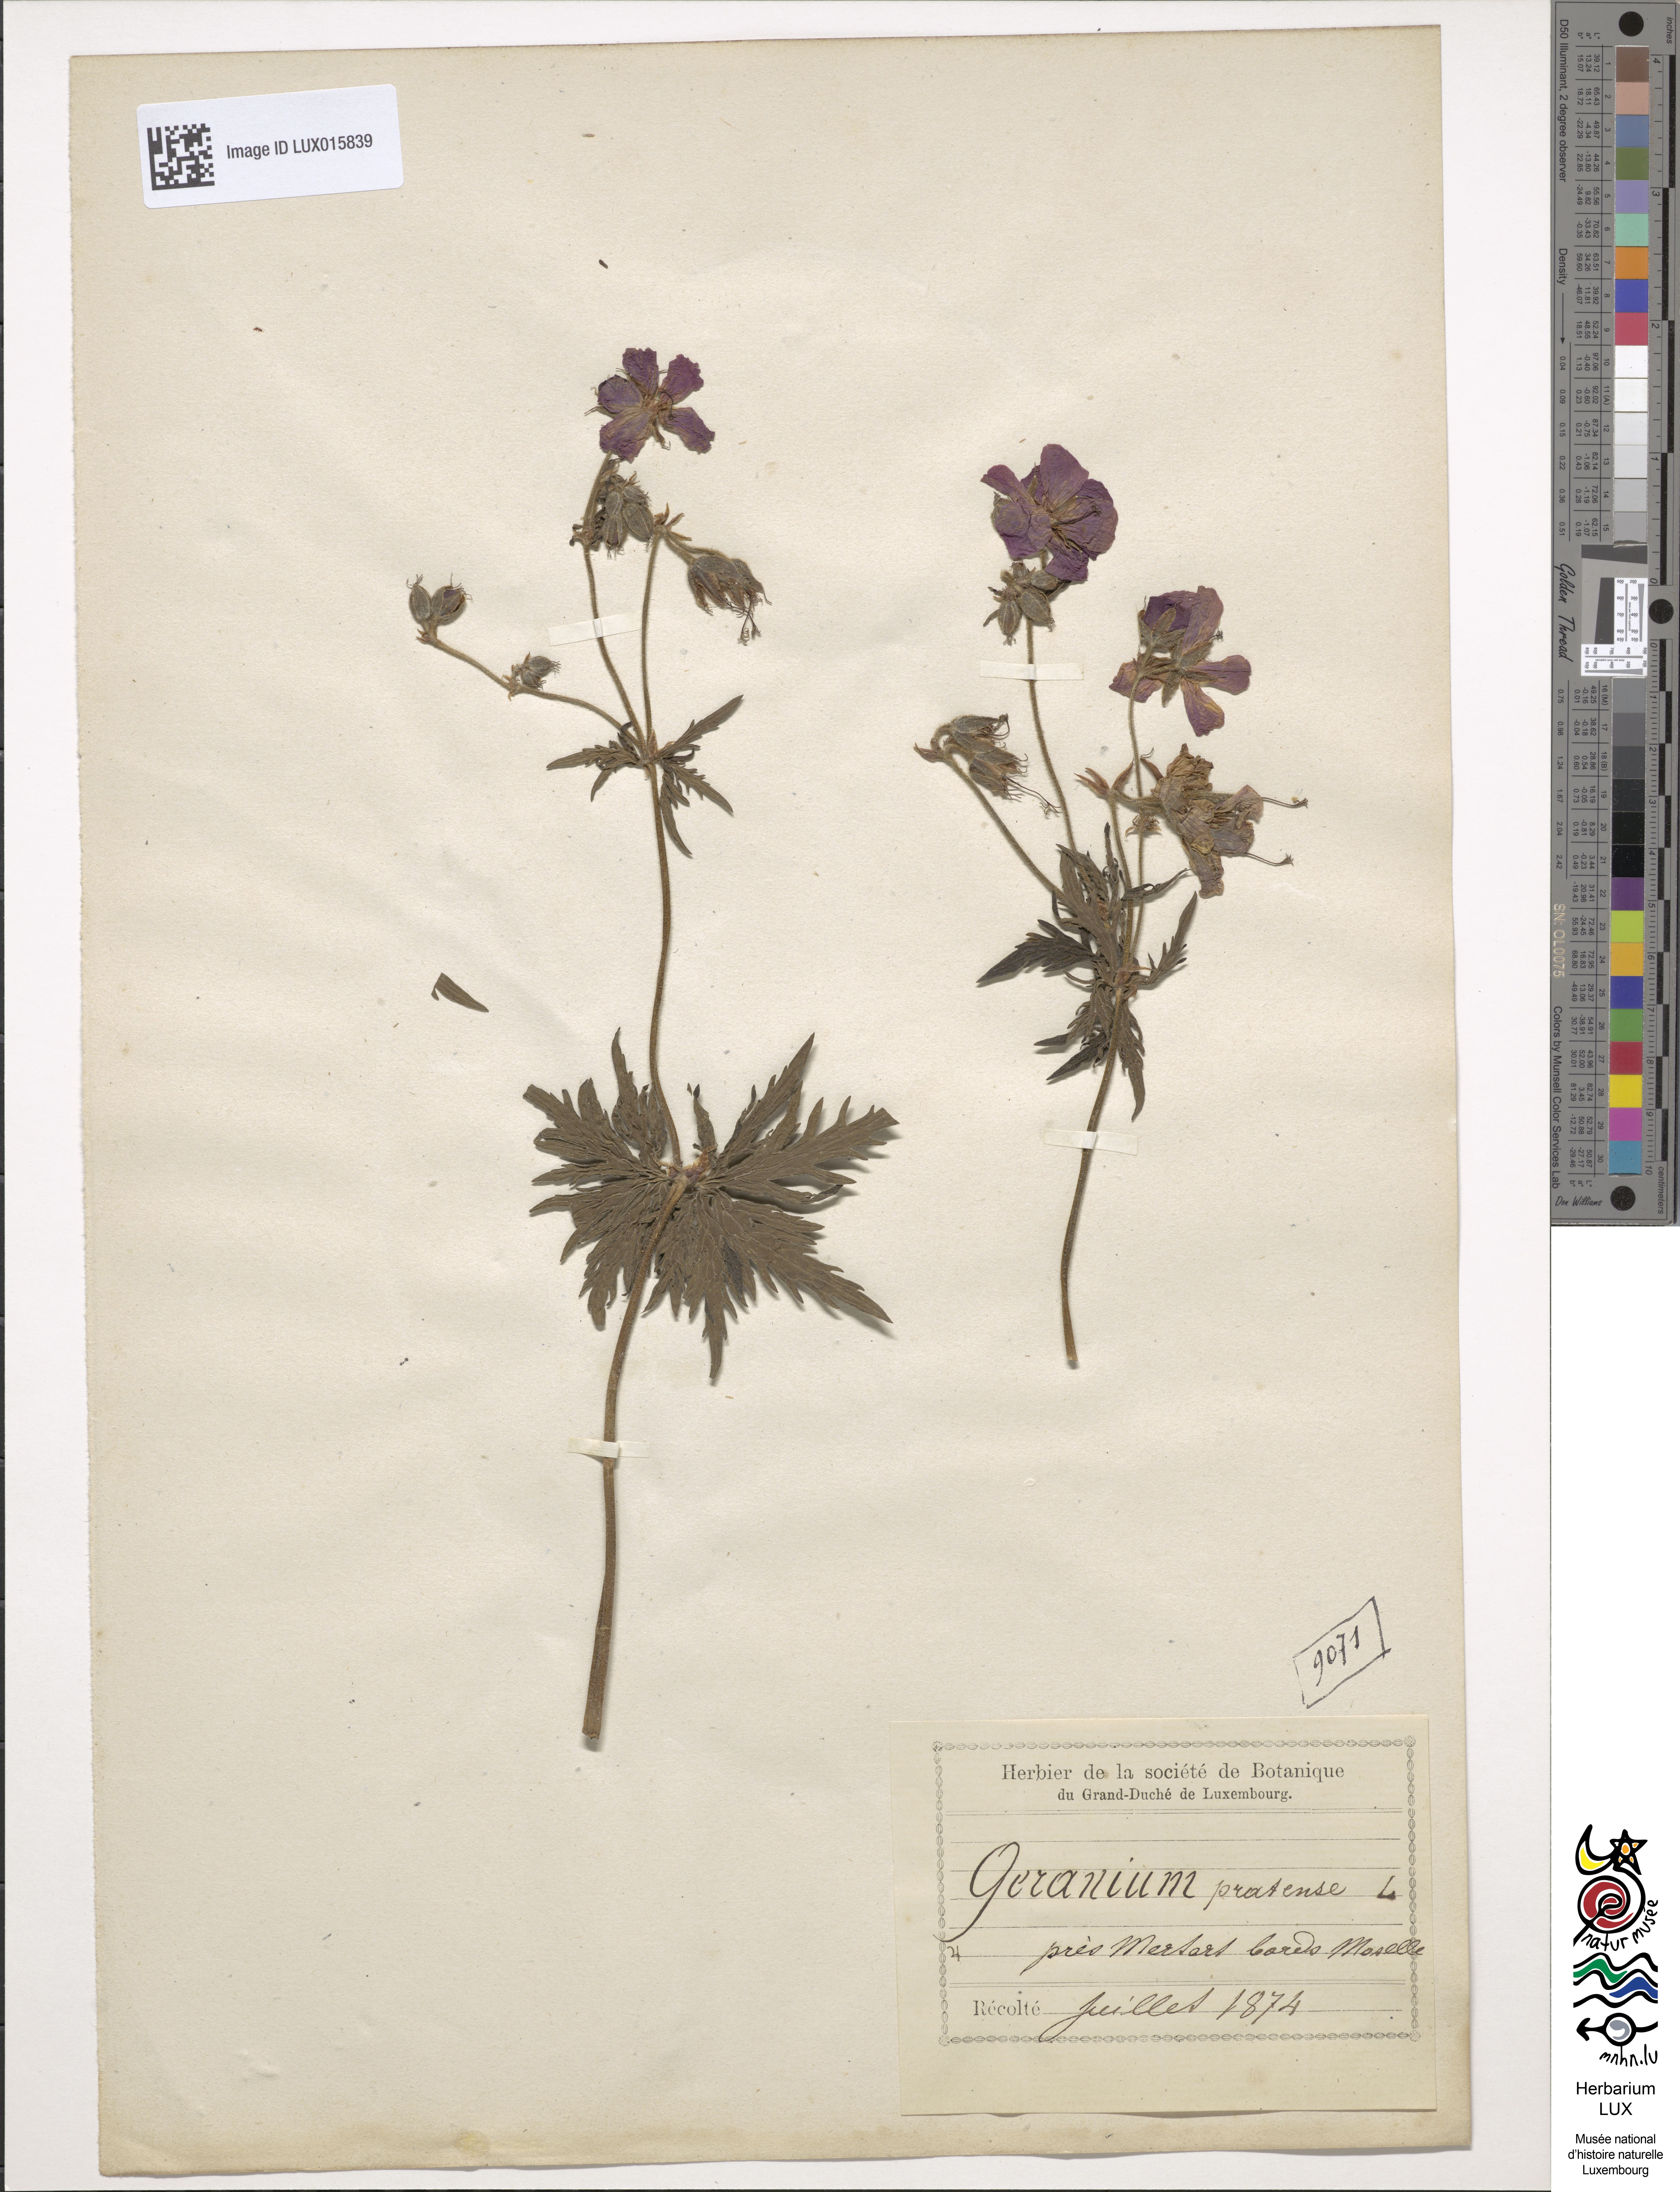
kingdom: Plantae
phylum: Tracheophyta
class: Magnoliopsida
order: Geraniales
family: Geraniaceae
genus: Geranium
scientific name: Geranium pratense
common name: Meadow crane's-bill
